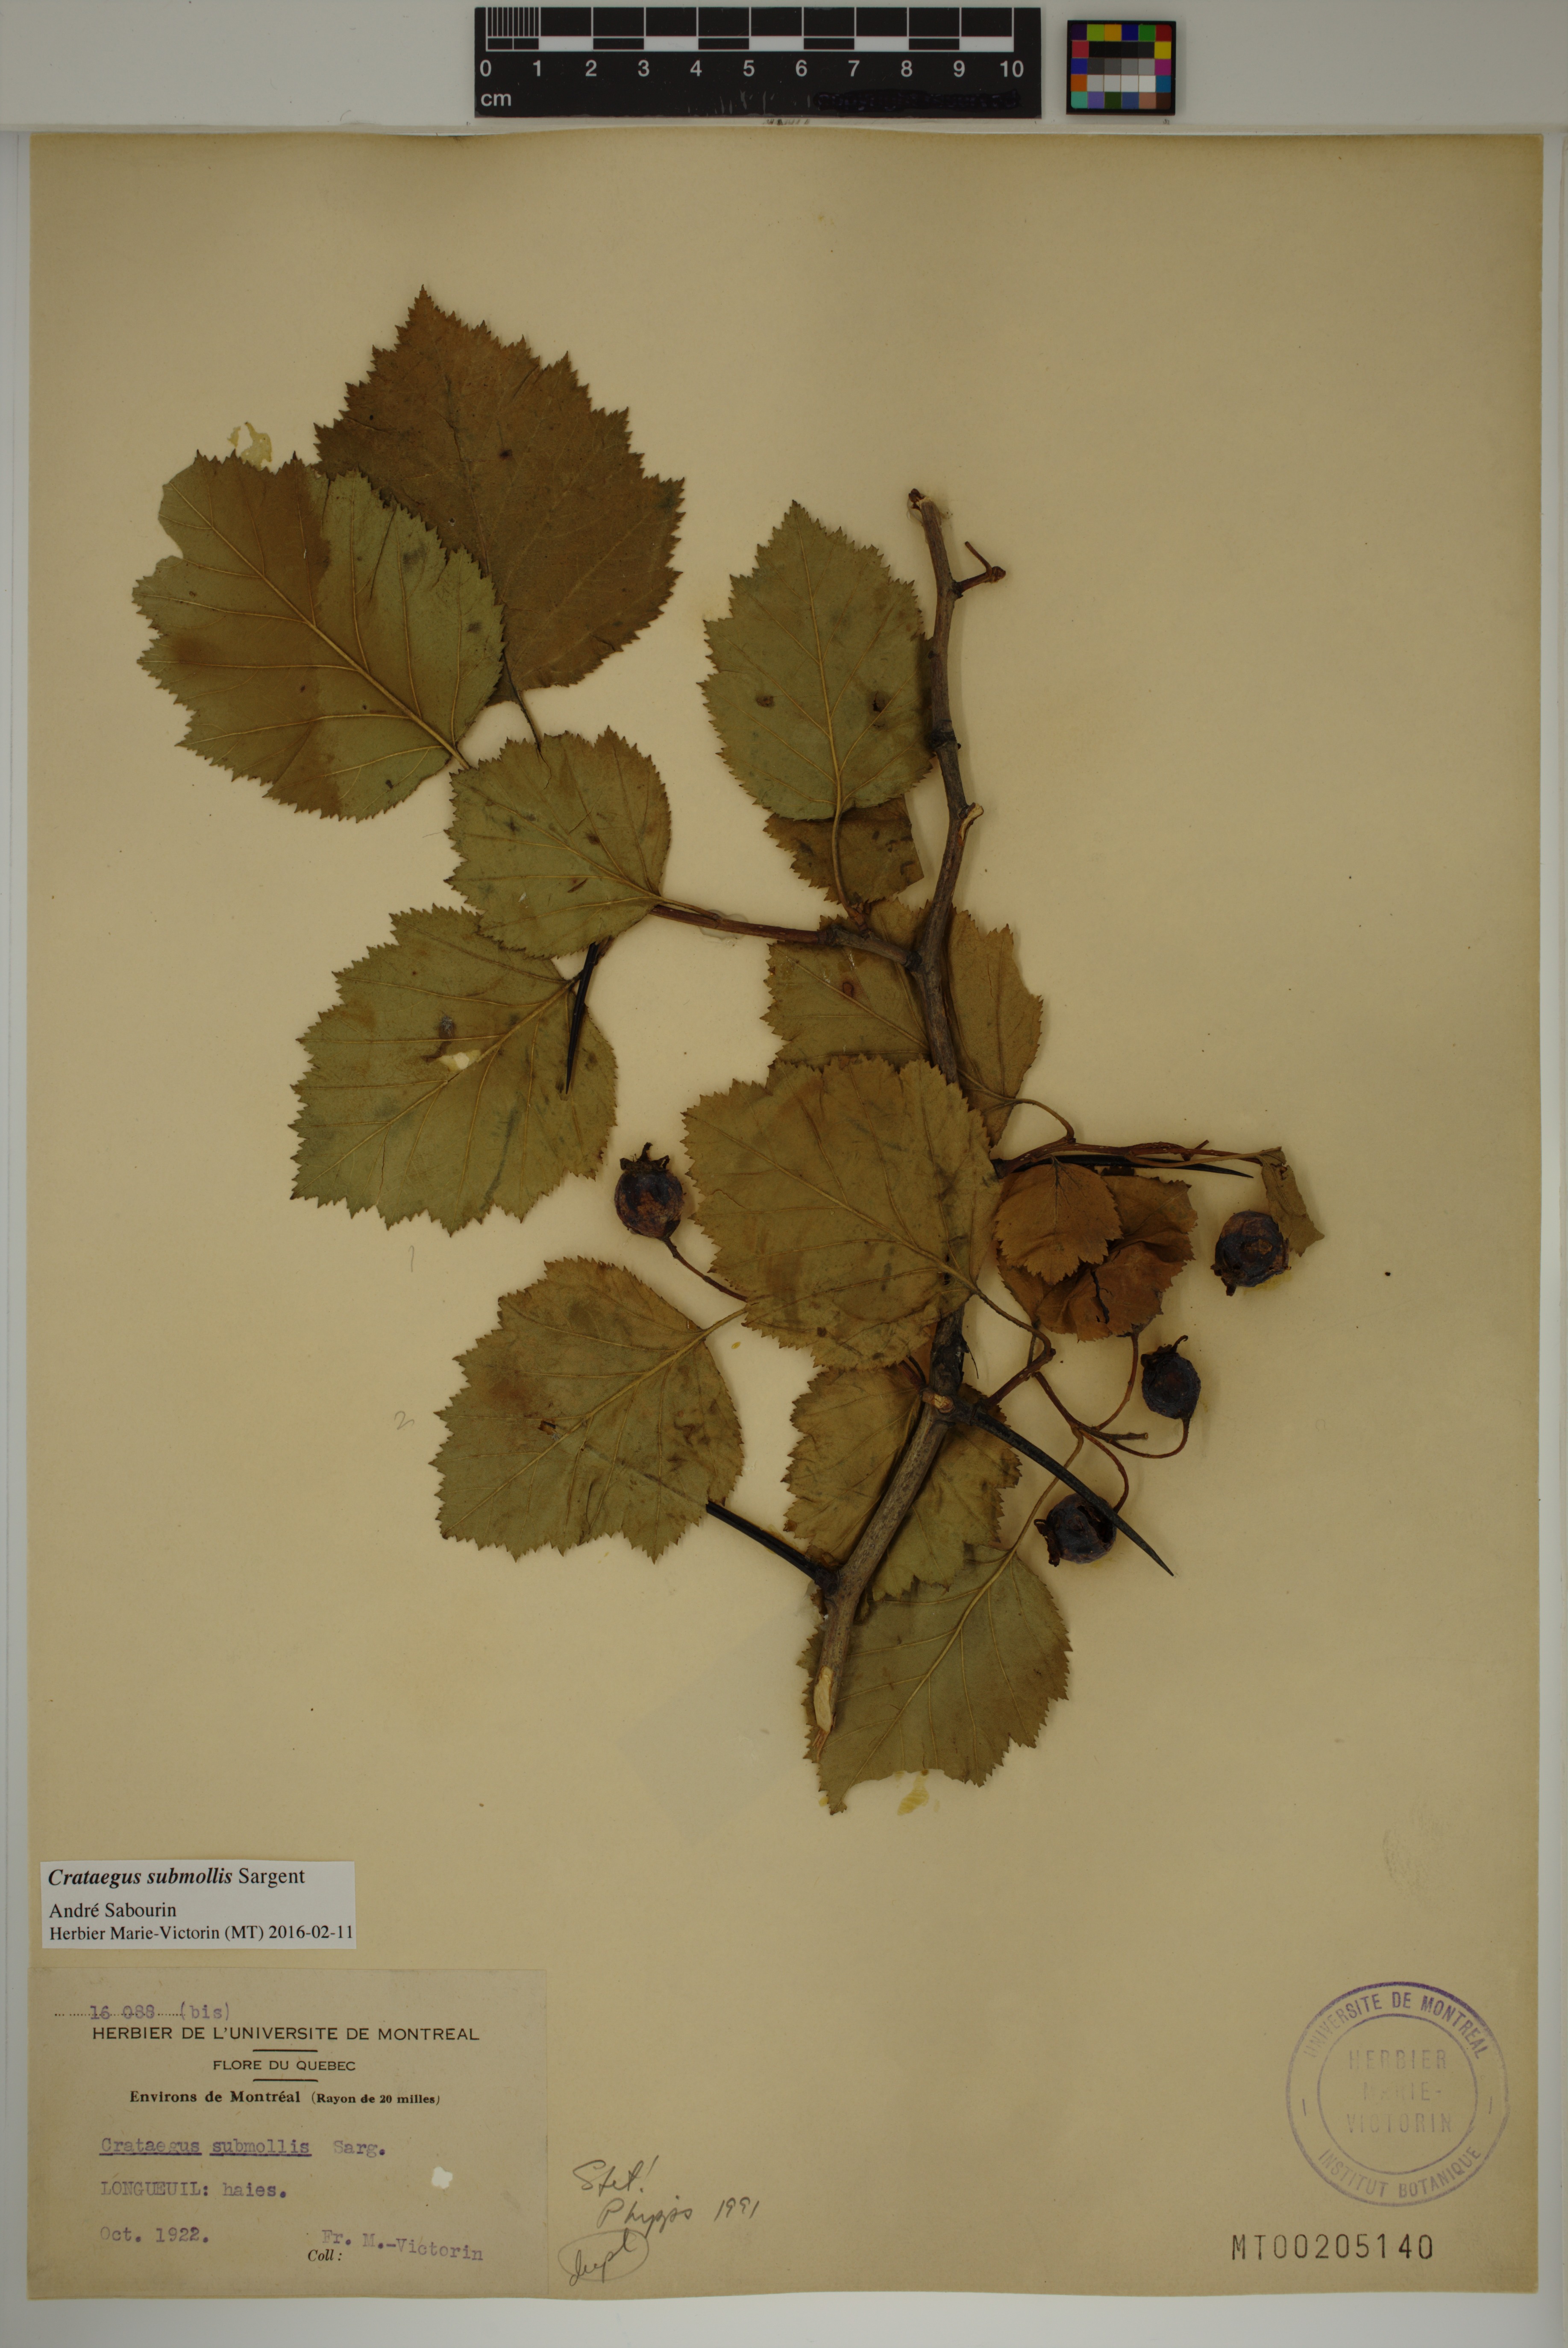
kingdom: Plantae
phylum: Tracheophyta
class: Magnoliopsida
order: Rosales
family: Rosaceae
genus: Crataegus
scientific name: Crataegus submollis
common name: Hairy cockspurthorn
